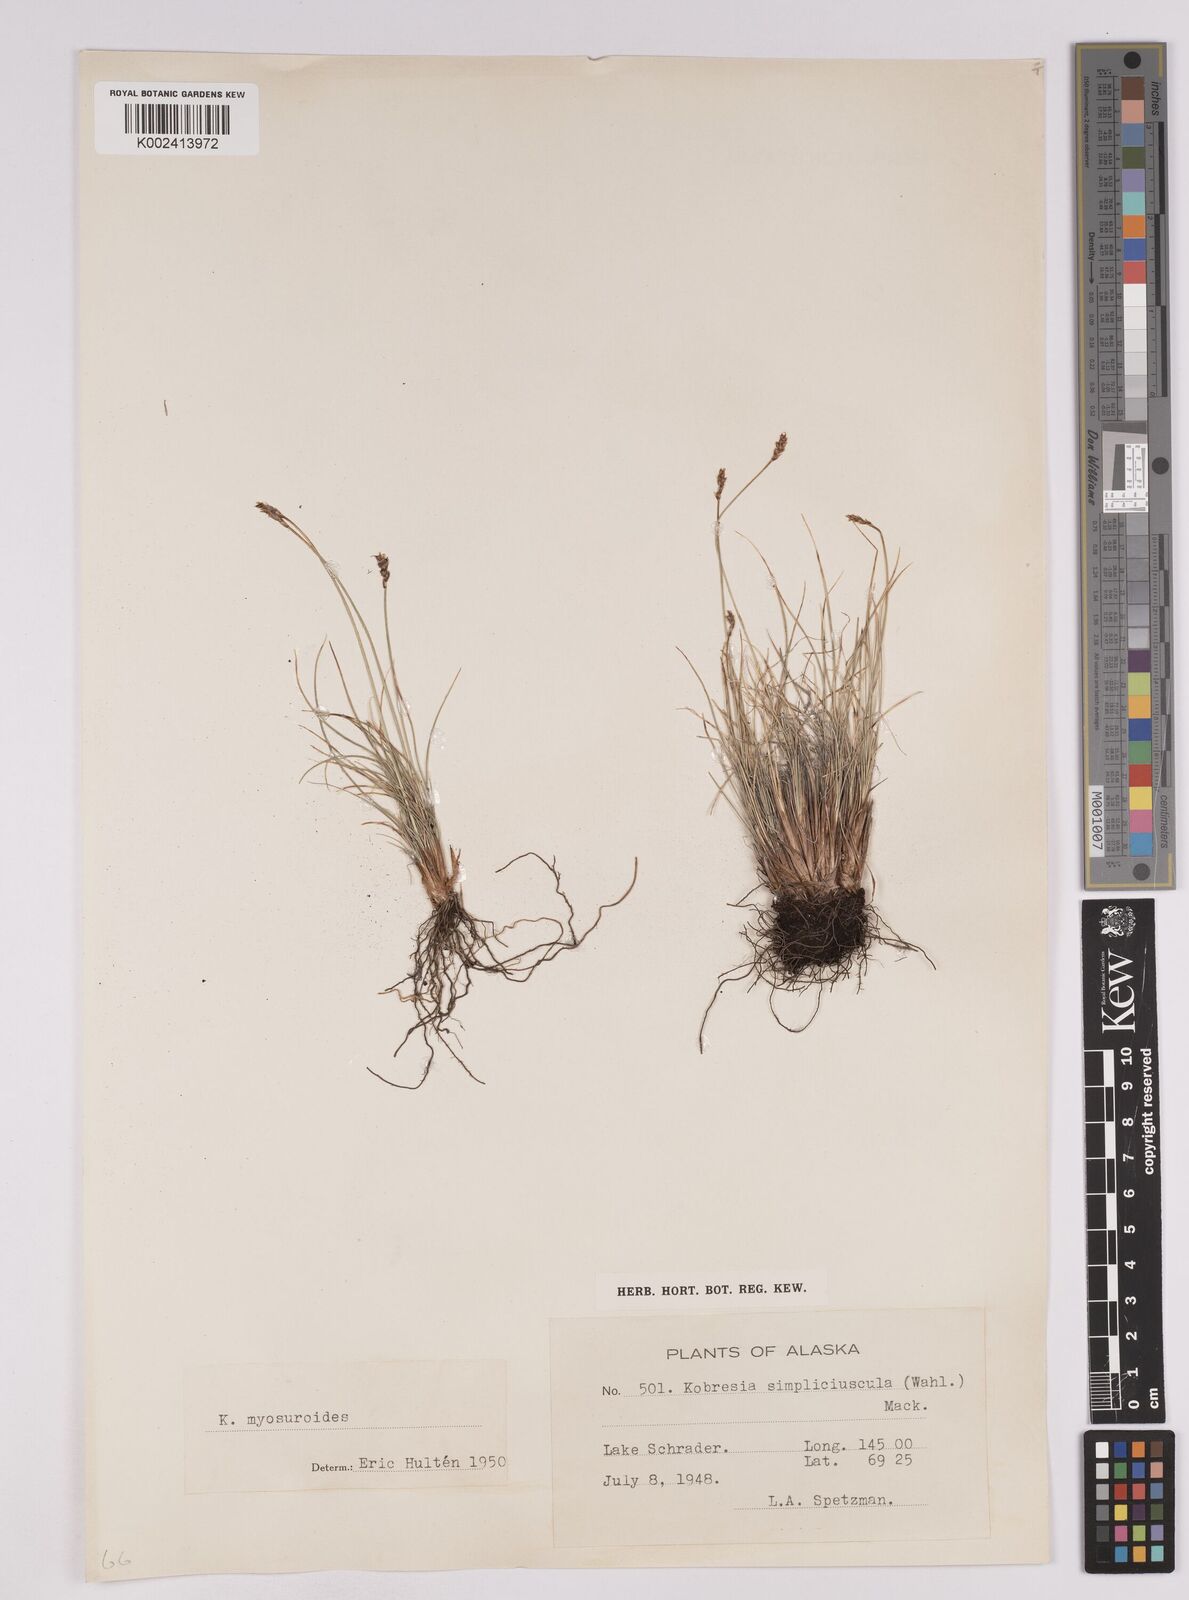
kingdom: Plantae
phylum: Tracheophyta
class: Liliopsida
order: Poales
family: Cyperaceae
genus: Carex
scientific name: Carex simpliciuscula
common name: Simple bog sedge
